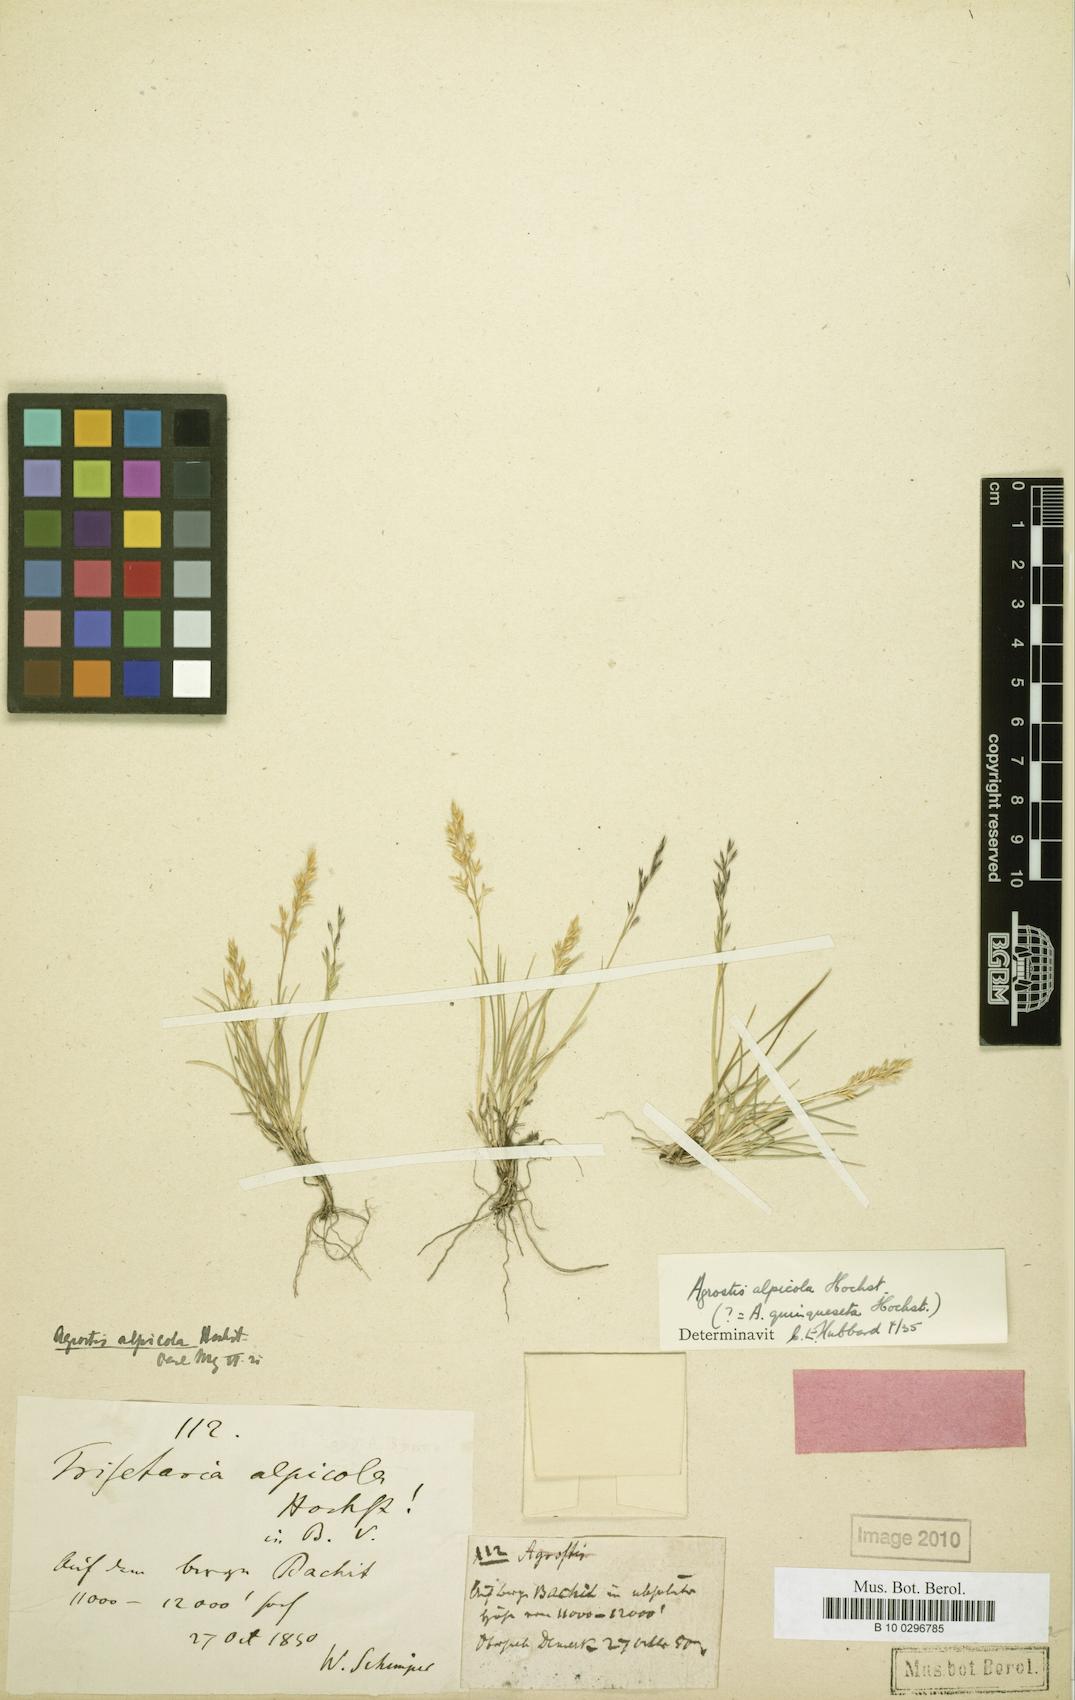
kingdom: Plantae
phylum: Tracheophyta
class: Liliopsida
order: Poales
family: Poaceae
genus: Agrostis
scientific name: Agrostis quinqueseta
